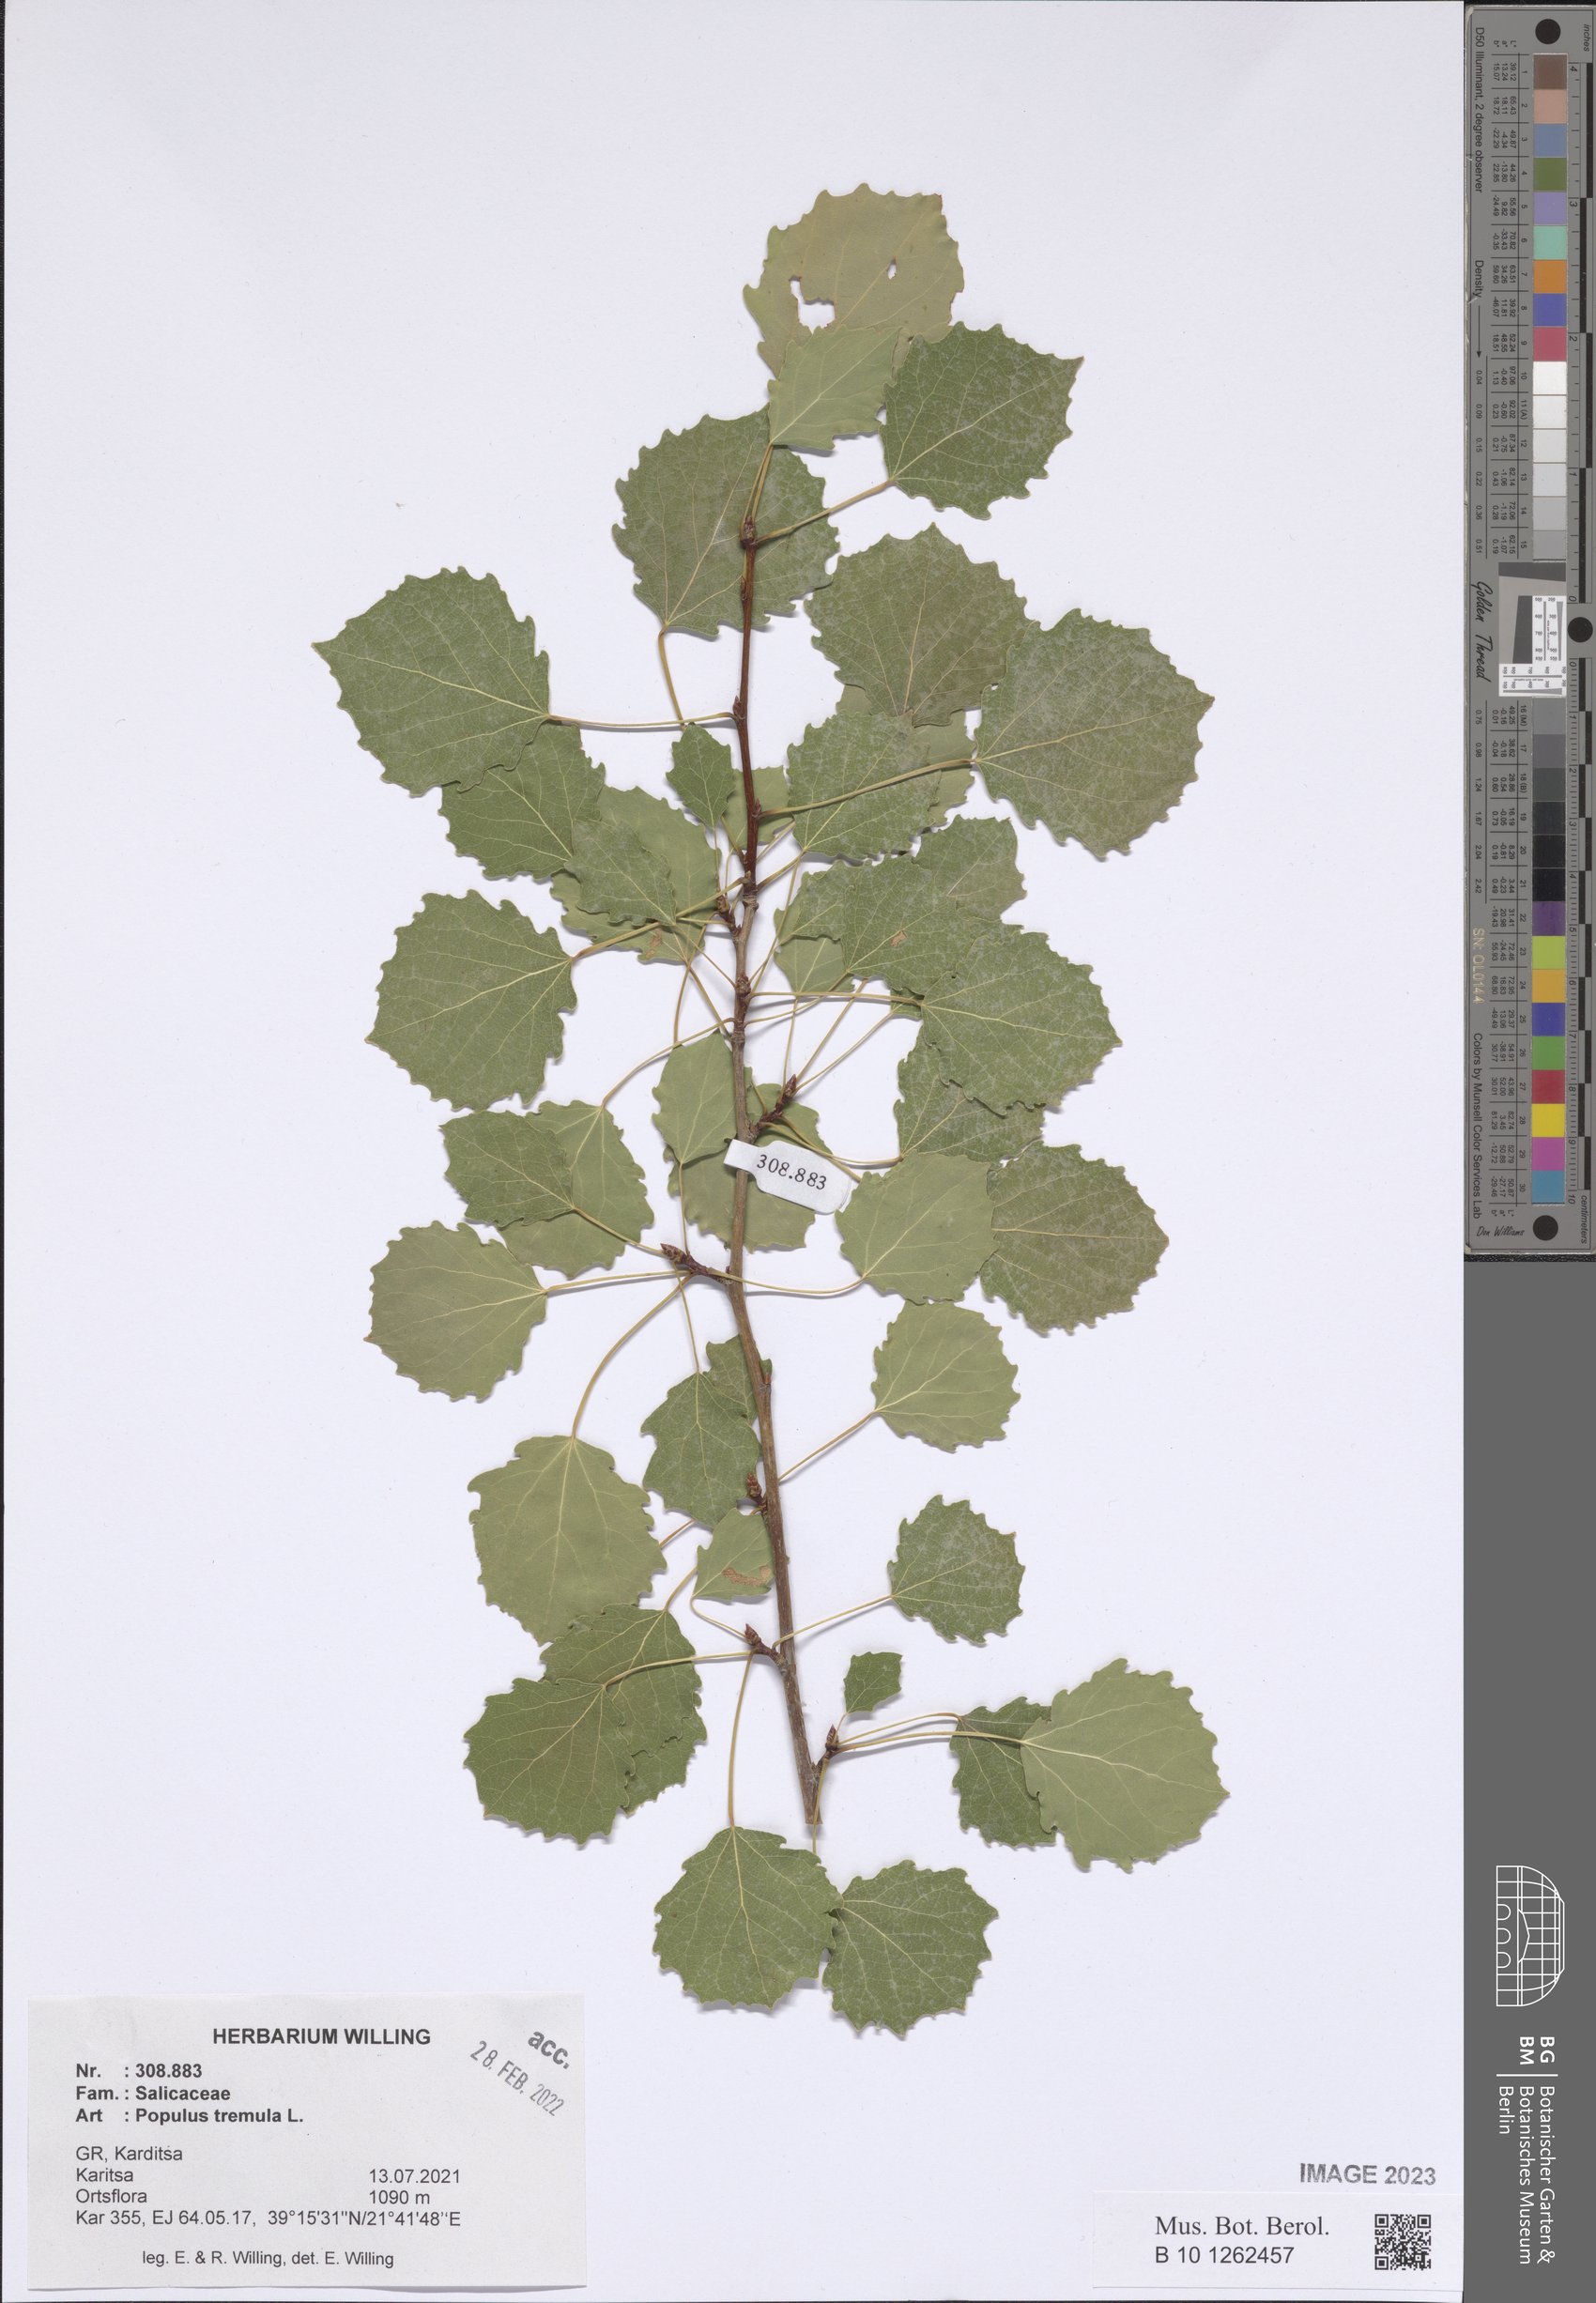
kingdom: Plantae
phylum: Tracheophyta
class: Magnoliopsida
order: Malpighiales
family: Salicaceae
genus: Populus
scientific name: Populus tremula
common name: European aspen
